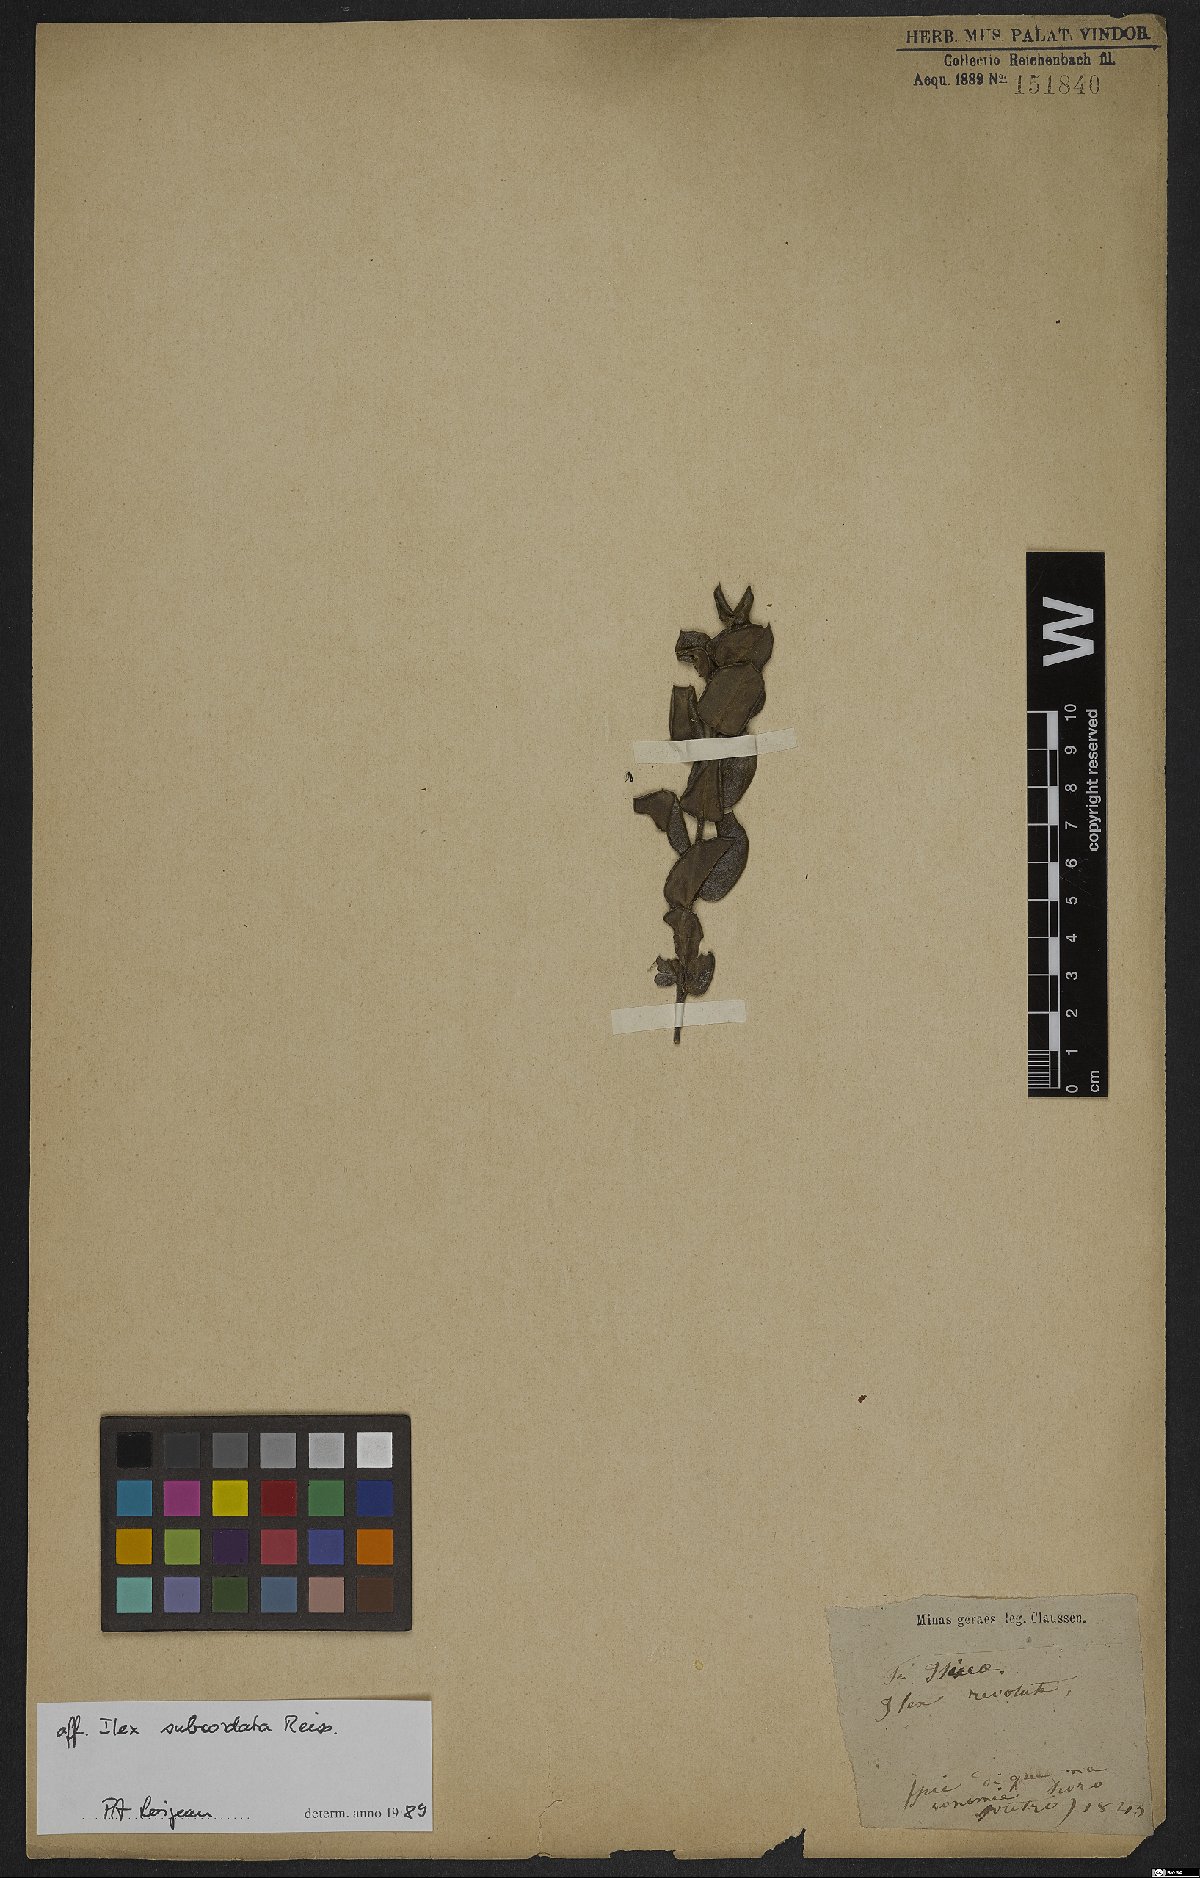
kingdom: Plantae
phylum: Tracheophyta
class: Magnoliopsida
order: Aquifoliales
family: Aquifoliaceae
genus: Ilex
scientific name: Ilex subcordata
